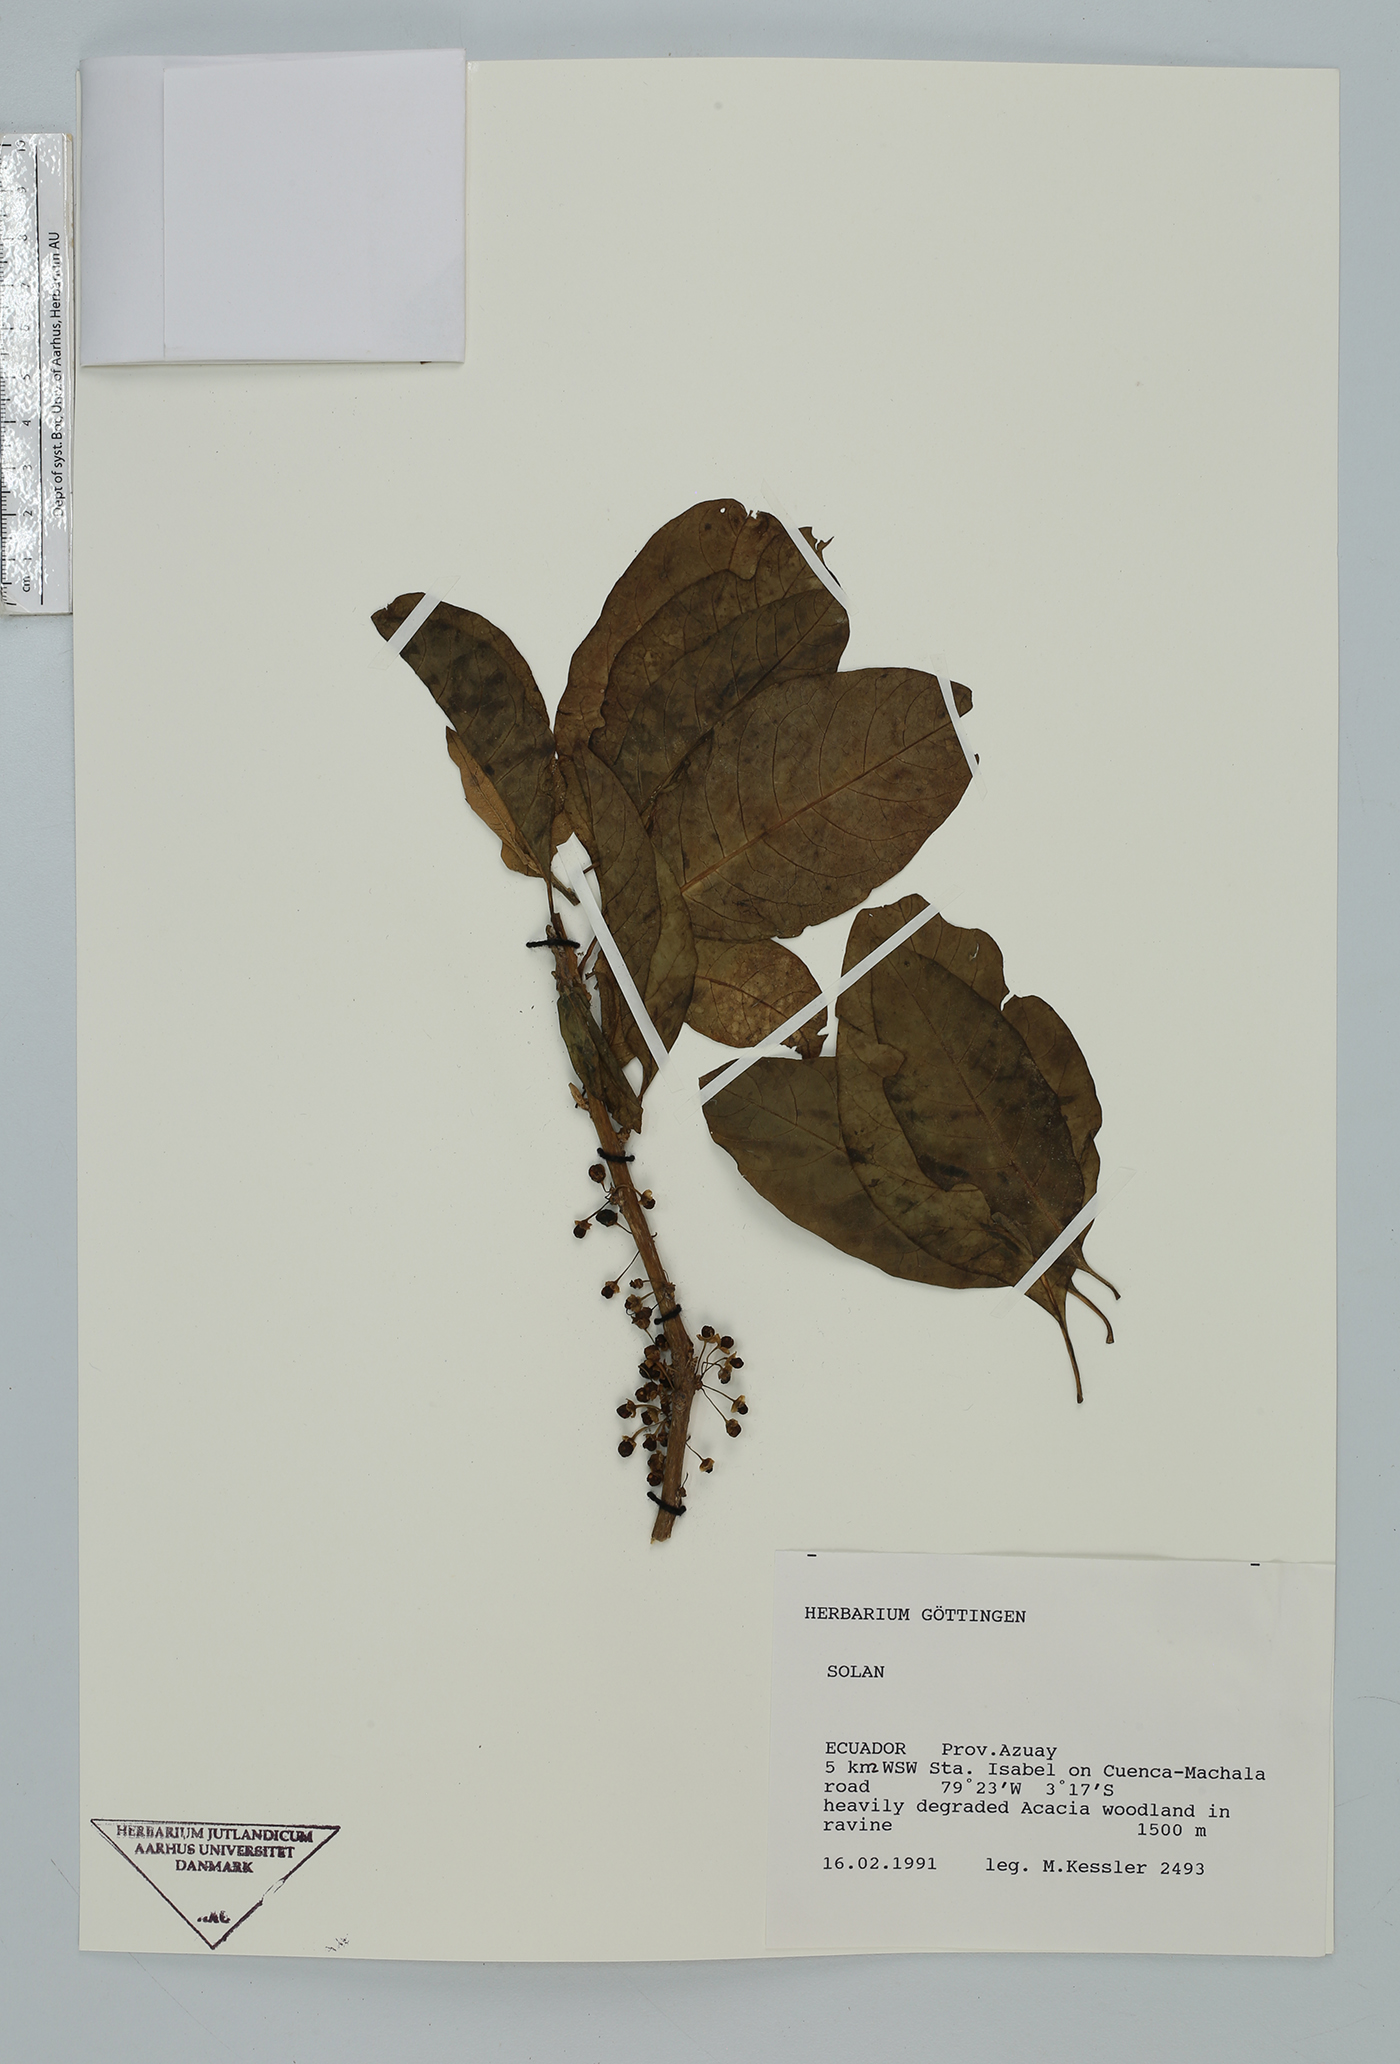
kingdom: Plantae
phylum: Tracheophyta
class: Magnoliopsida
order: Solanales
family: Solanaceae
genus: Iochroma
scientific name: Iochroma arborescens
